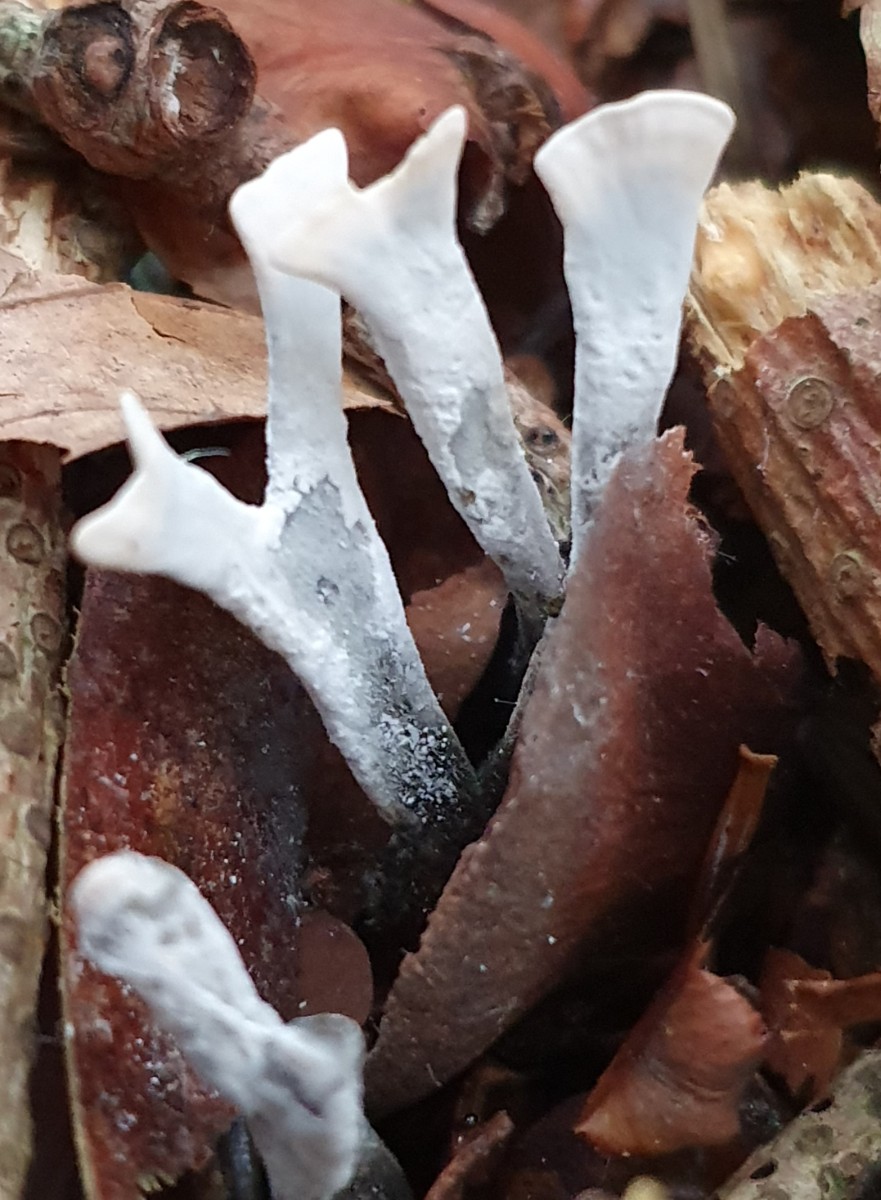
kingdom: Fungi
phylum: Ascomycota
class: Sordariomycetes
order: Xylariales
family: Xylariaceae
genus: Xylaria
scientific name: Xylaria hypoxylon
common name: grenet stødsvamp
